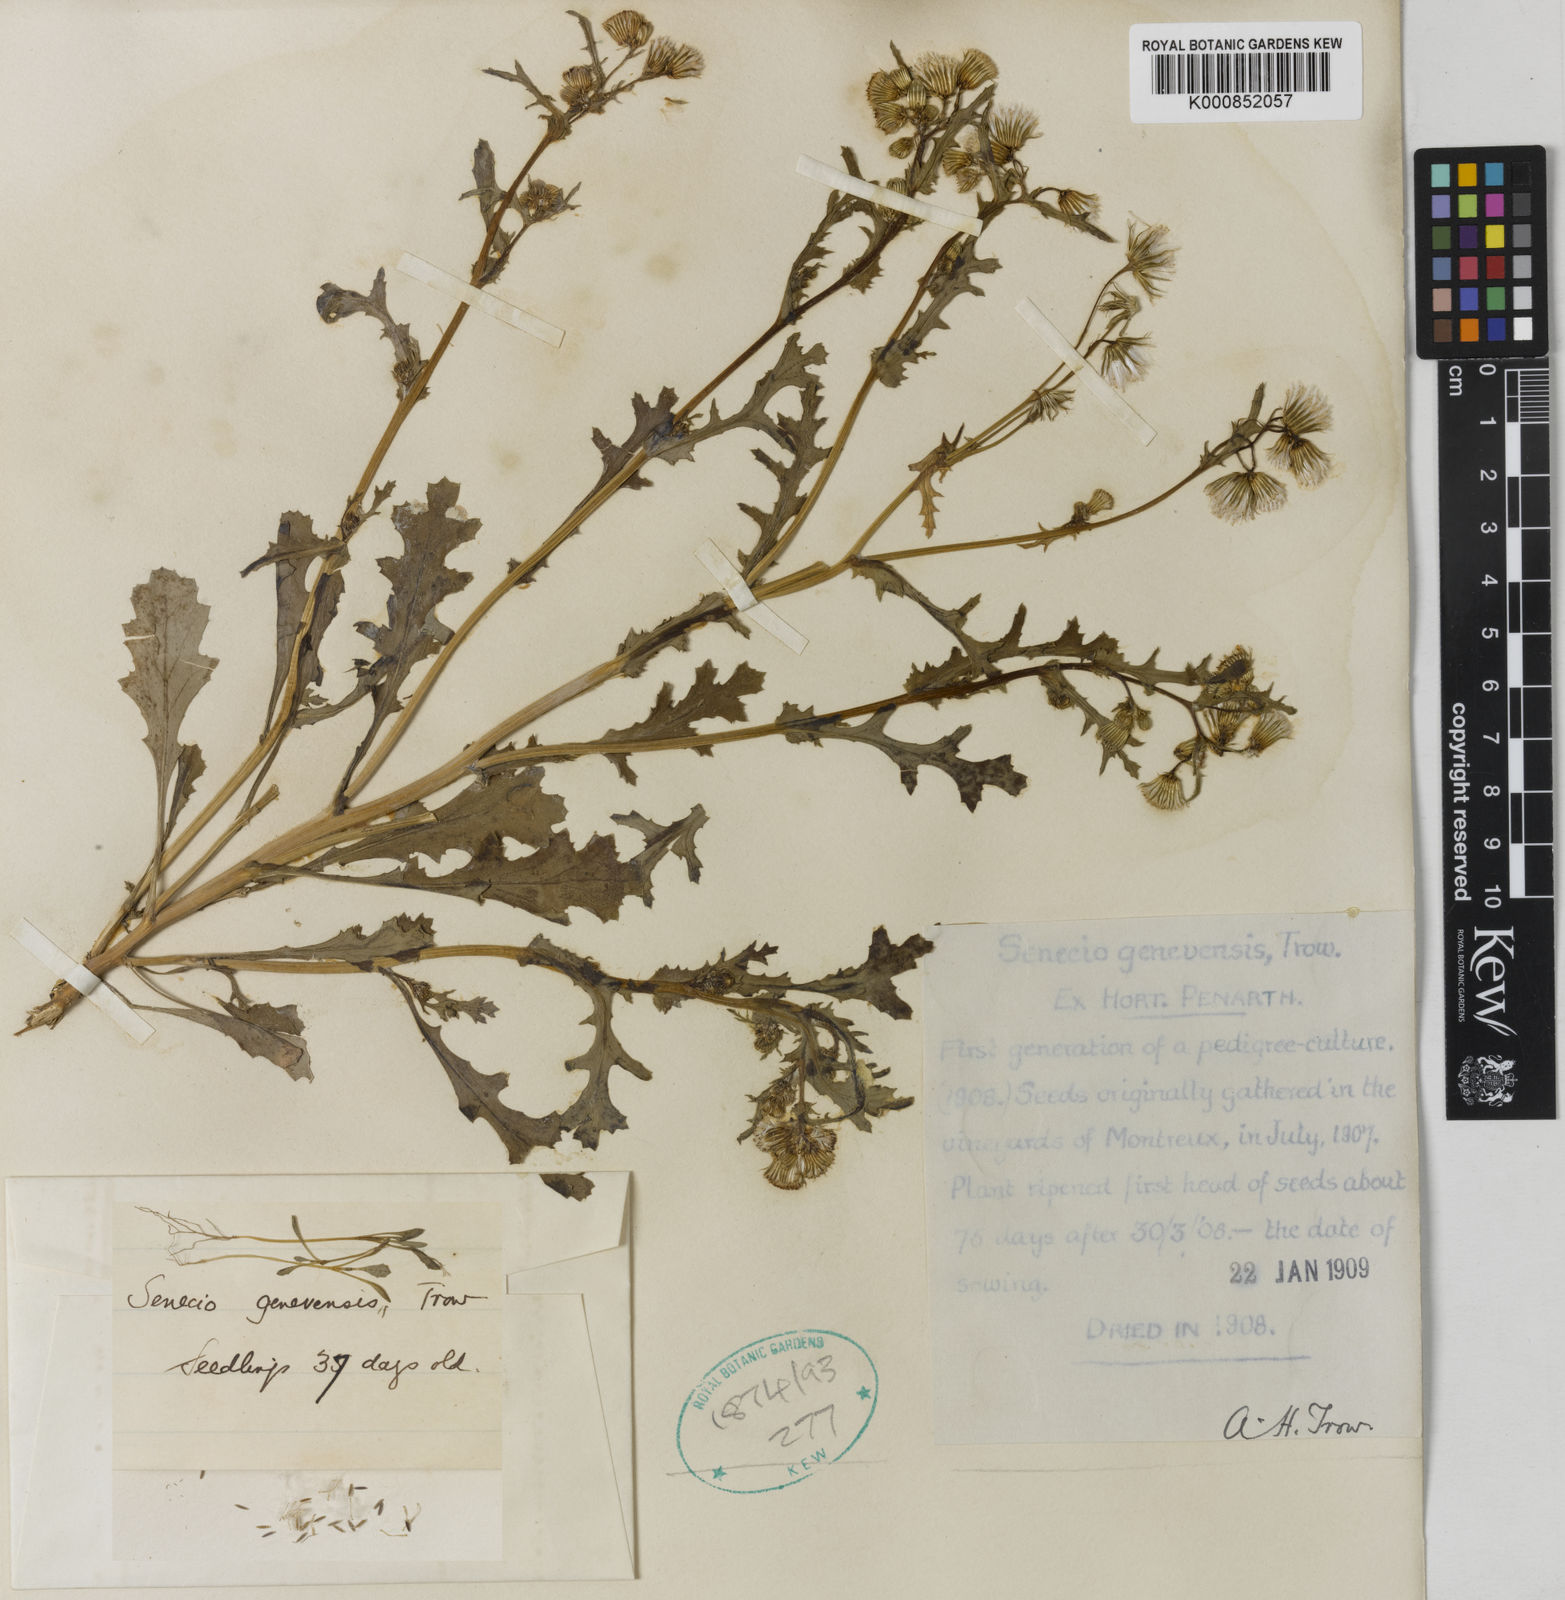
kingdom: Plantae
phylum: Tracheophyta
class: Magnoliopsida
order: Asterales
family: Asteraceae
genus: Senecio
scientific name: Senecio vulgaris
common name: Old-man-in-the-spring
